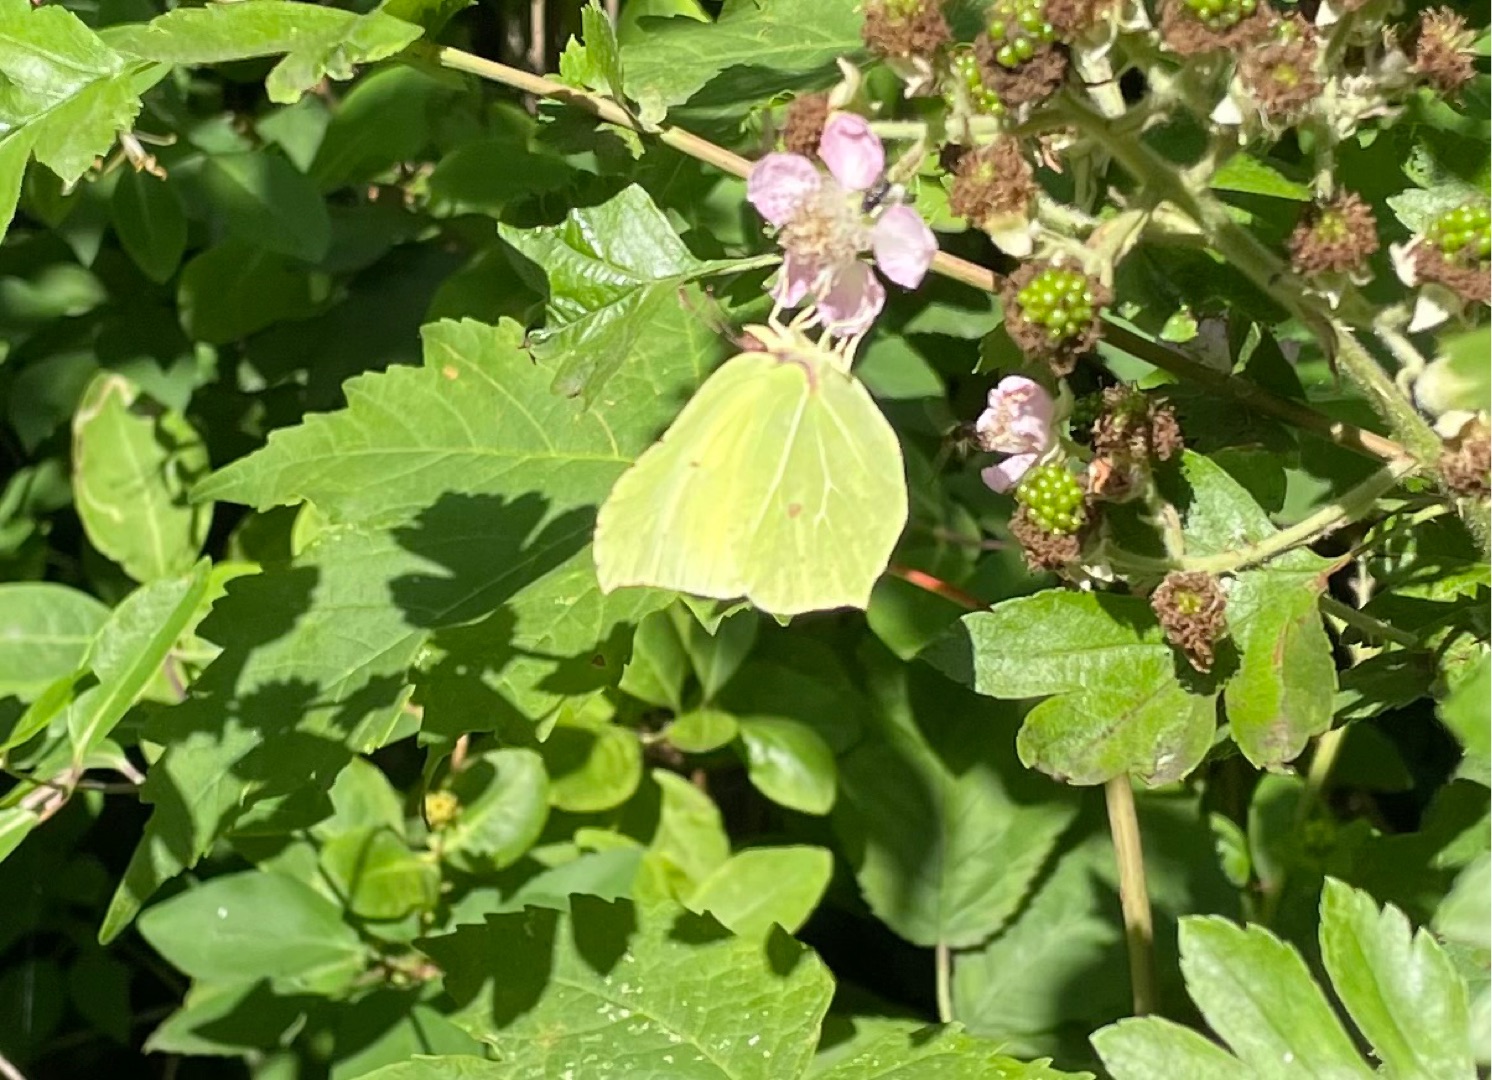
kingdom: Animalia
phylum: Arthropoda
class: Insecta
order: Lepidoptera
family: Pieridae
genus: Gonepteryx
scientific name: Gonepteryx rhamni
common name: Citronsommerfugl
